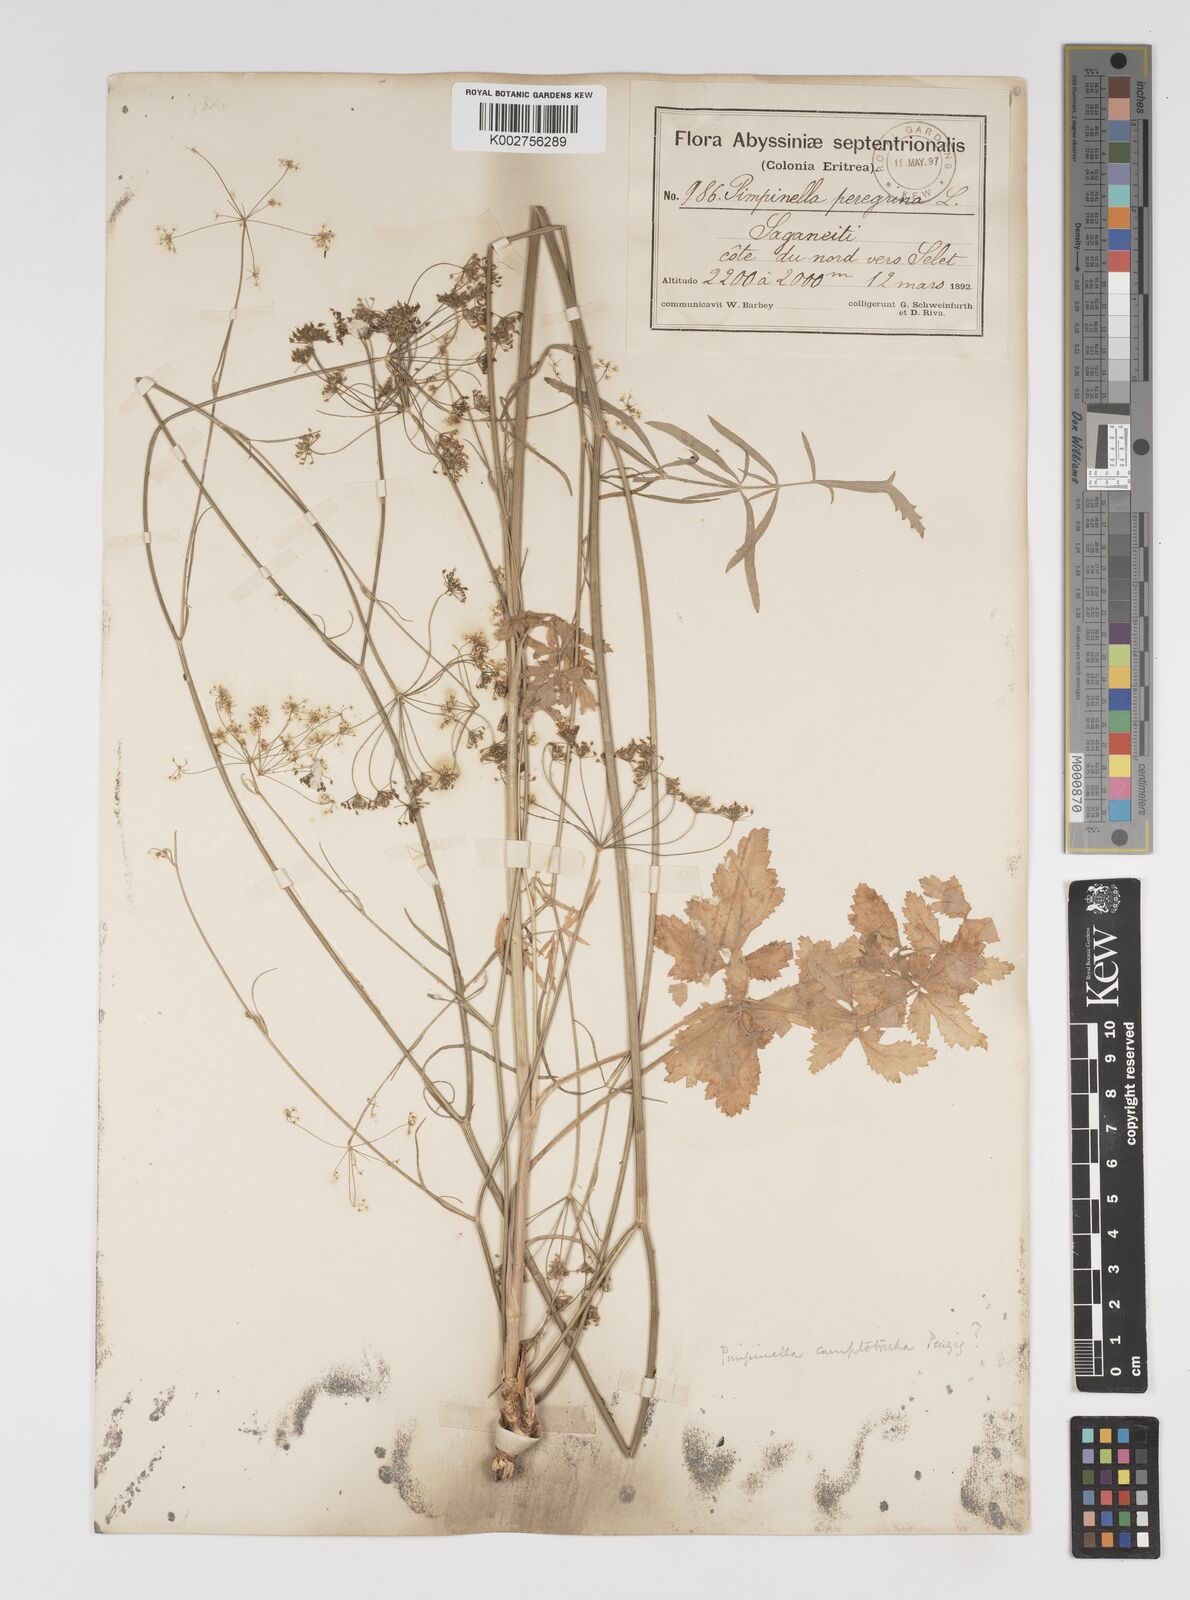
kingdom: Plantae
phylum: Tracheophyta
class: Magnoliopsida
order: Apiales
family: Apiaceae
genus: Pimpinella
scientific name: Pimpinella hirtella
